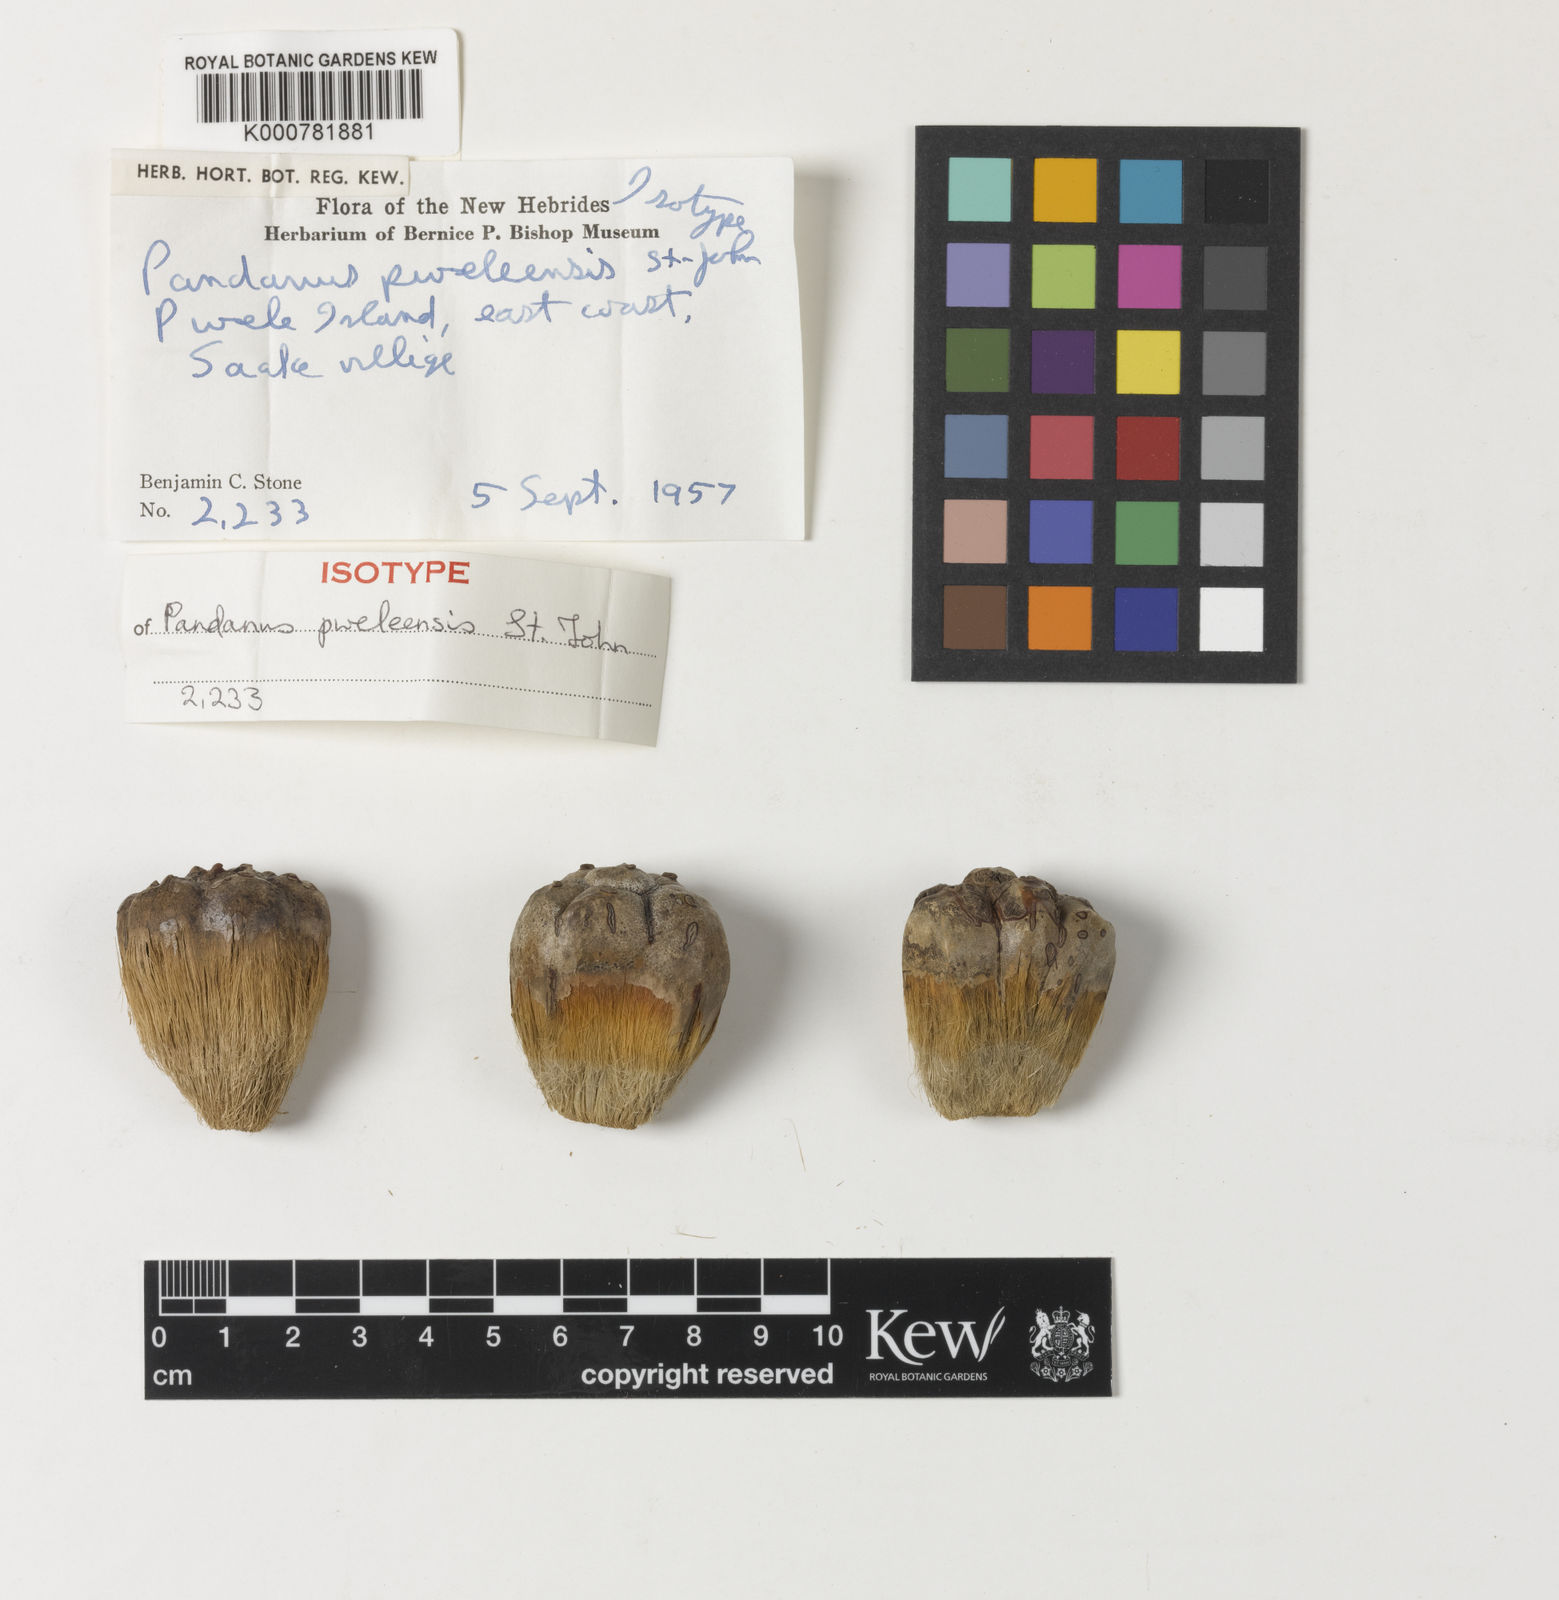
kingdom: Plantae
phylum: Tracheophyta
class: Liliopsida
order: Pandanales
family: Pandanaceae
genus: Pandanus
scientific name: Pandanus pweleensis
